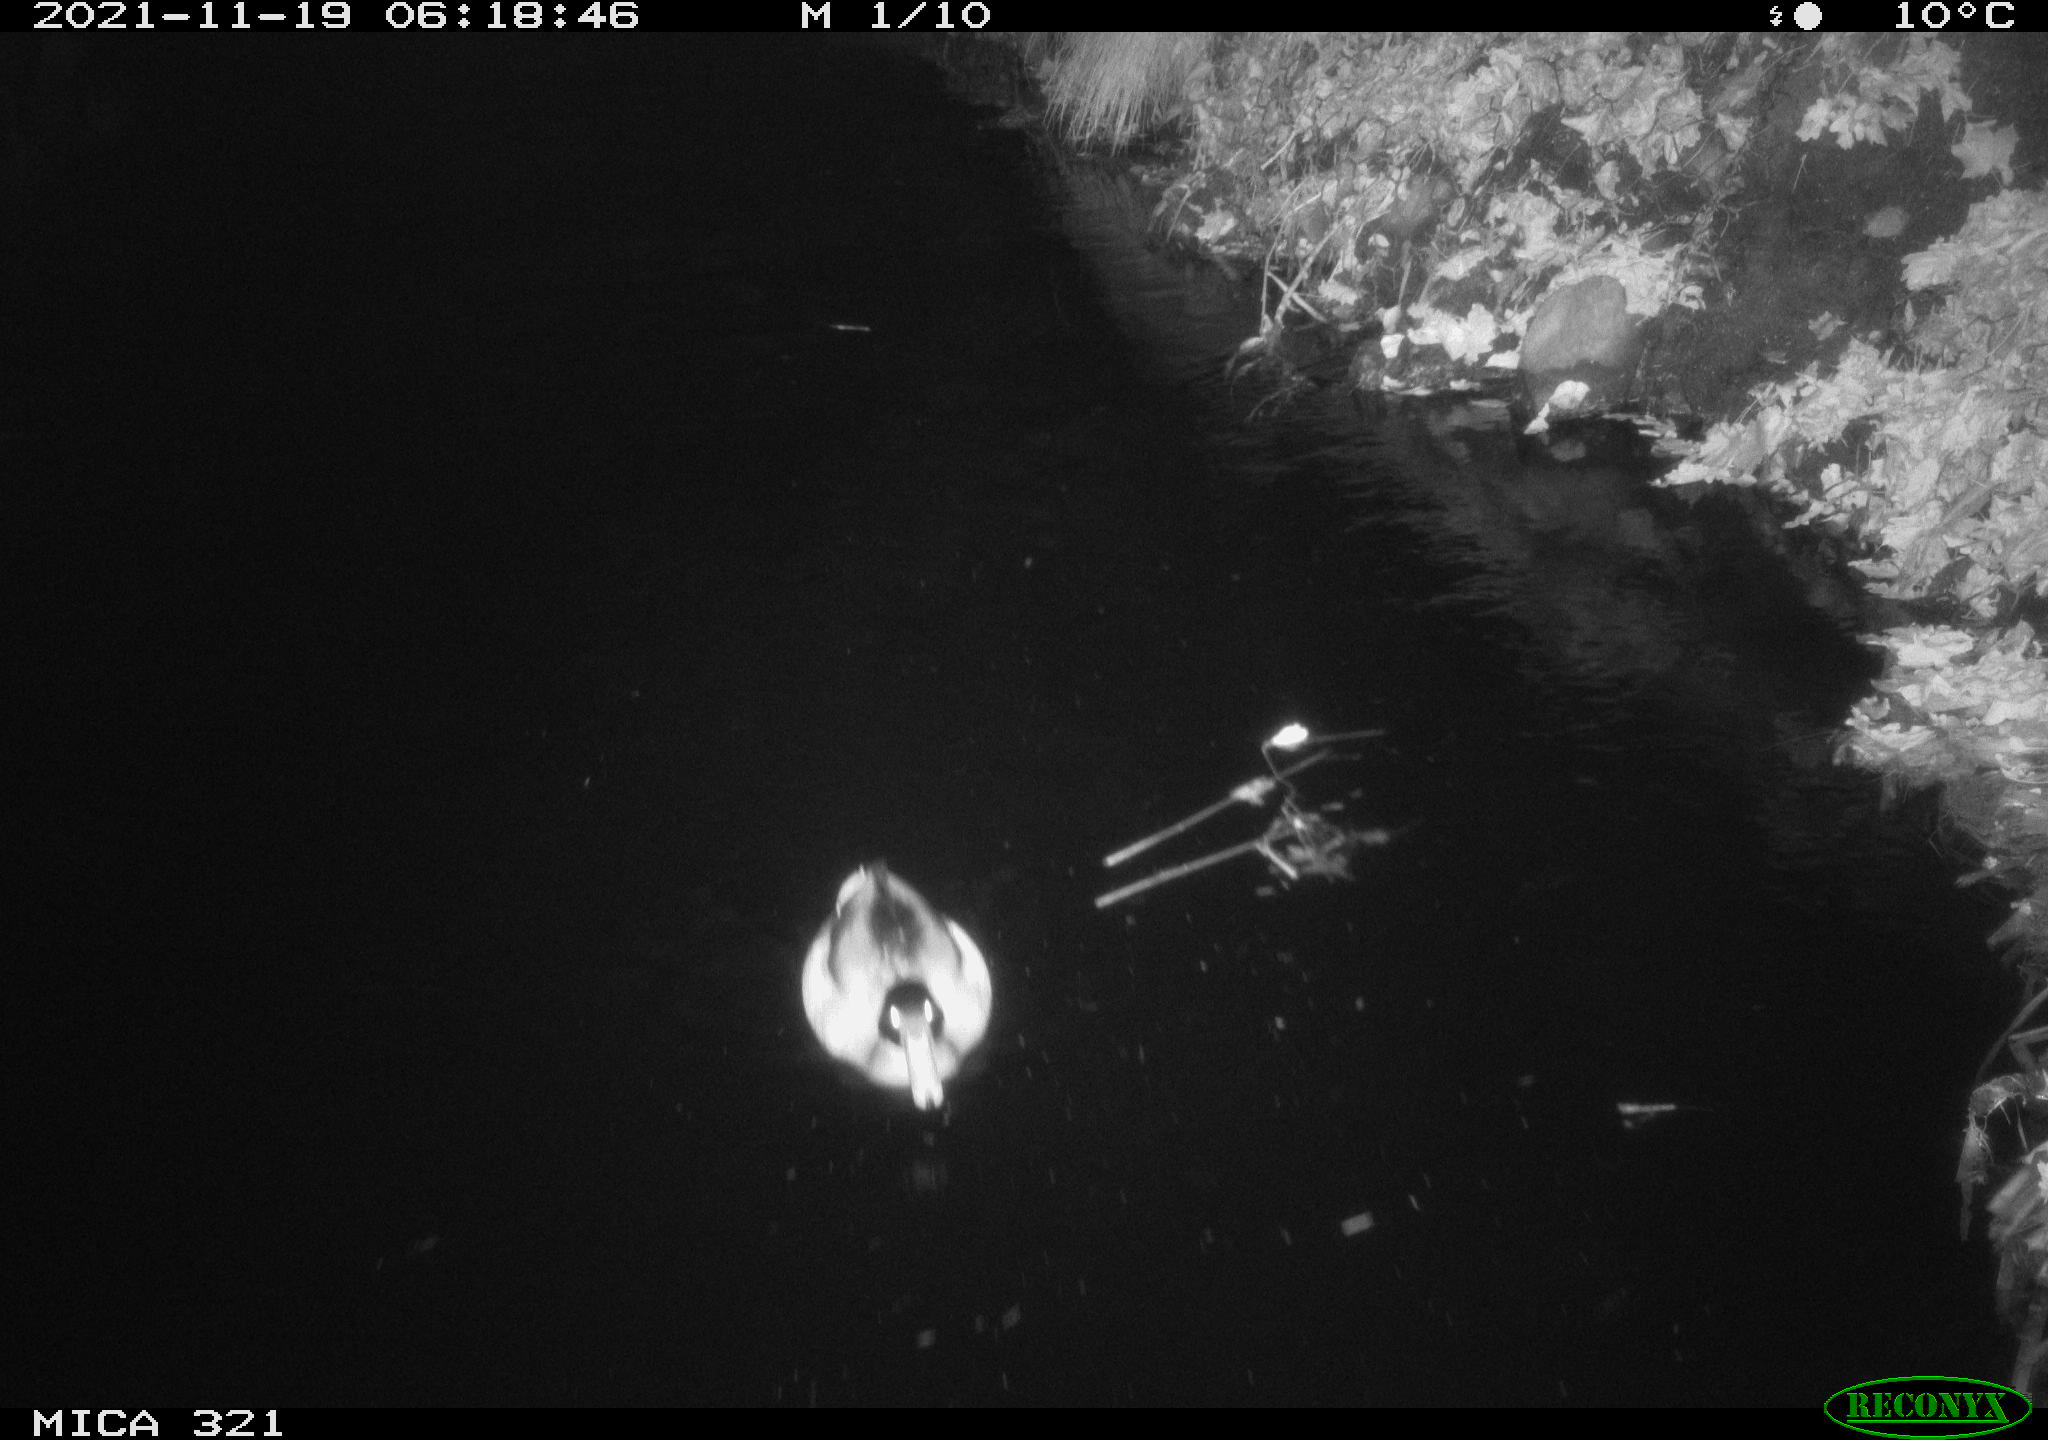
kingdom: Animalia
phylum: Chordata
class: Aves
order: Anseriformes
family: Anatidae
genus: Anas
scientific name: Anas platyrhynchos
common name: Mallard
